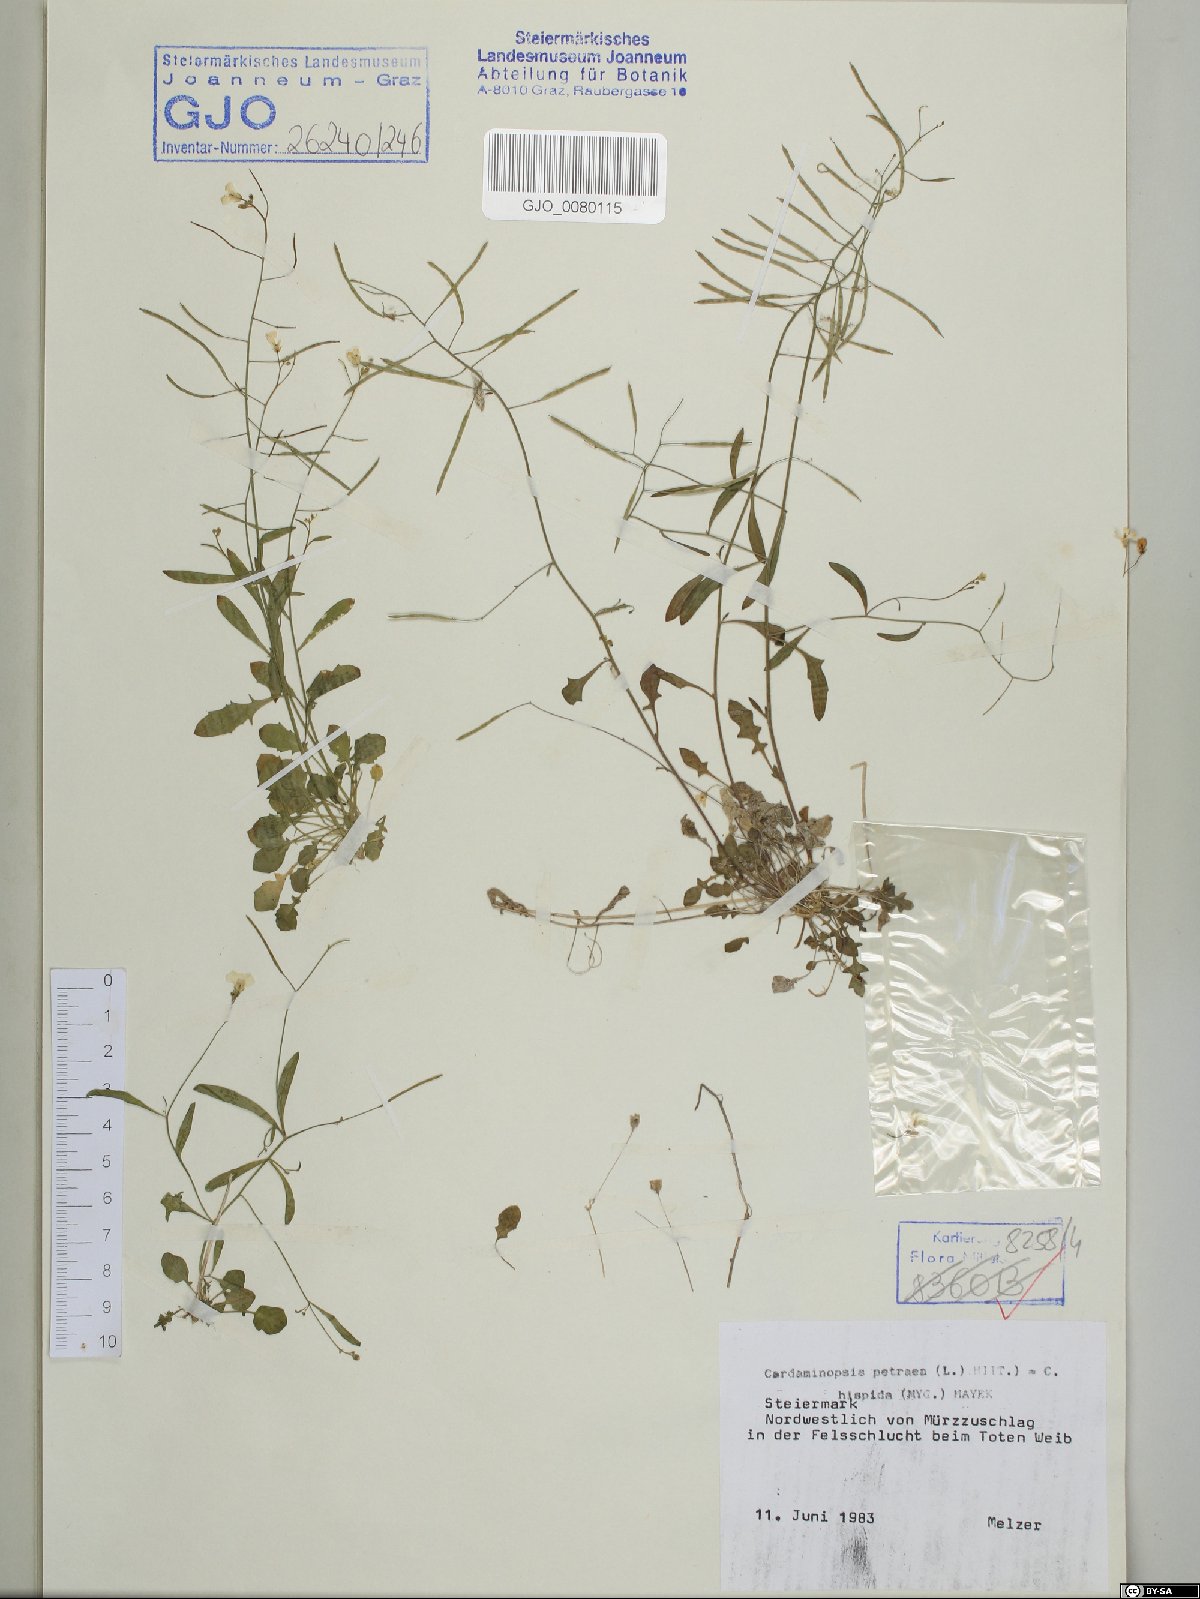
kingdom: Plantae
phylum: Tracheophyta
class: Magnoliopsida
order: Brassicales
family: Brassicaceae
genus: Arabidopsis
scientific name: Arabidopsis lyrata
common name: Lyrate rockcress
